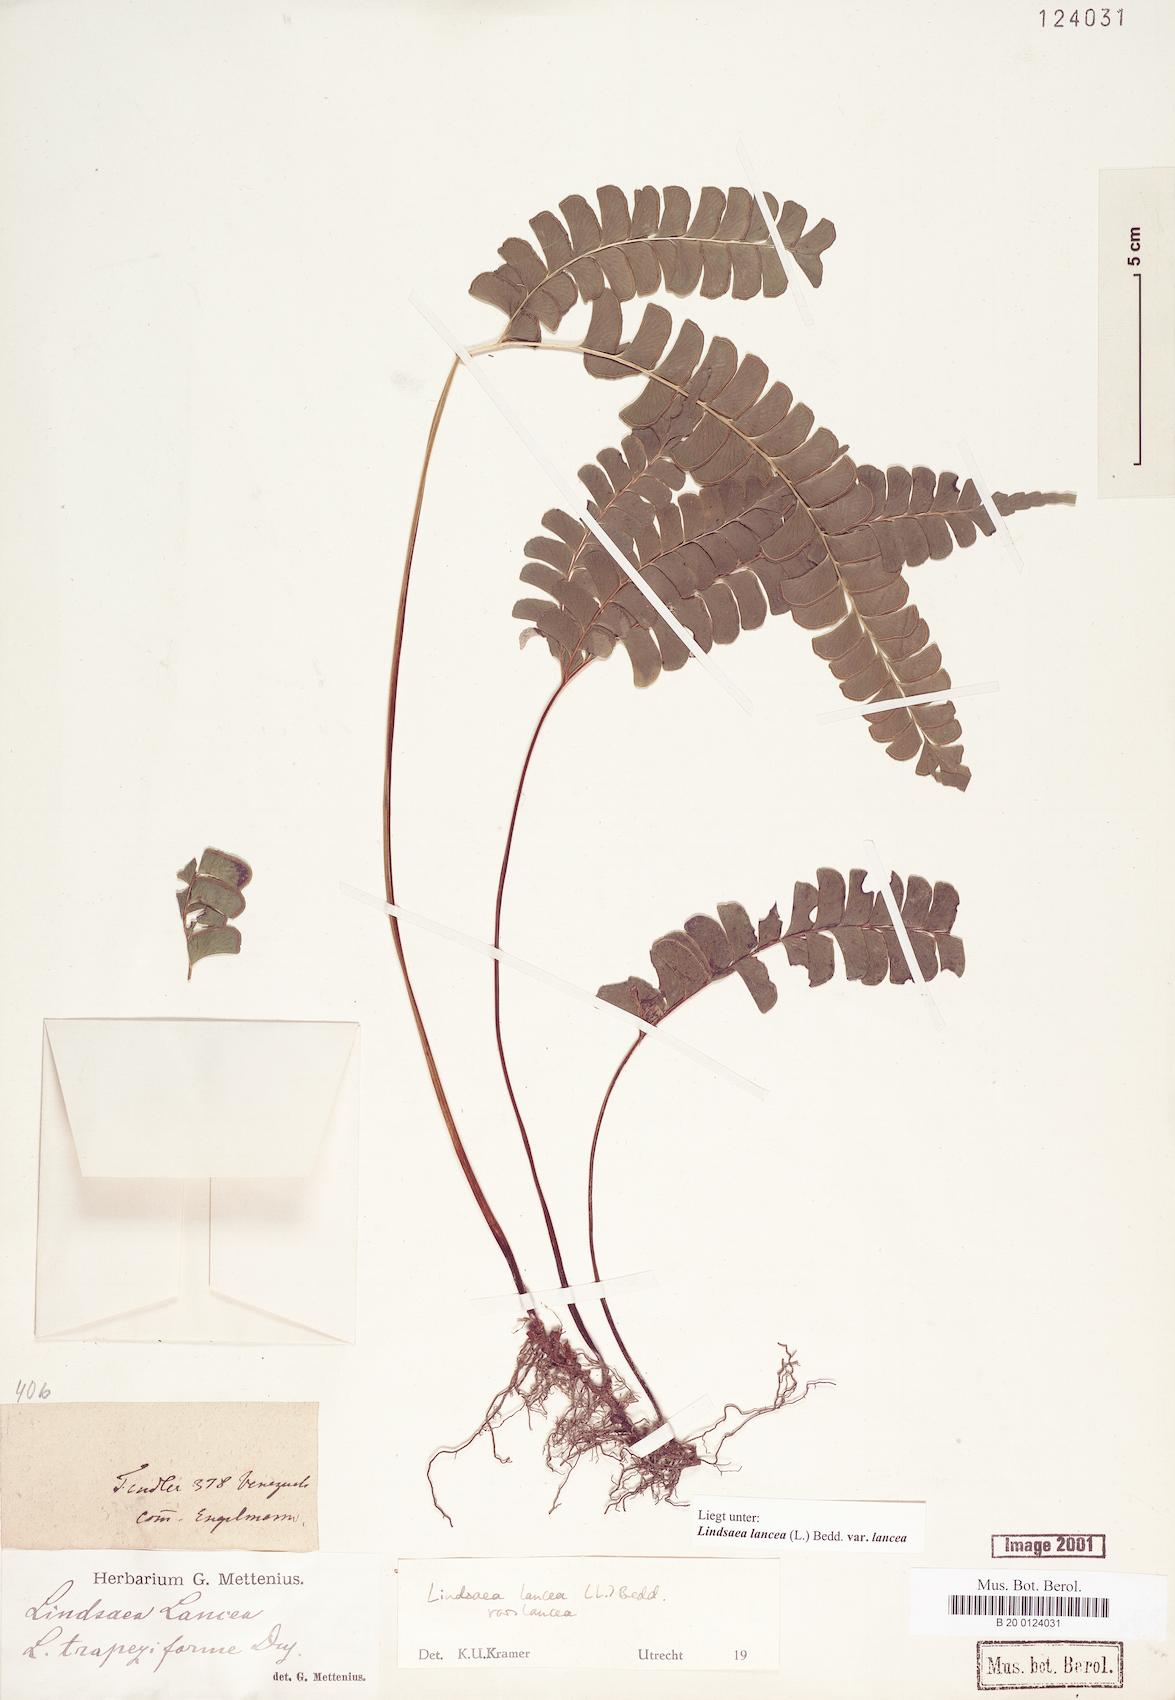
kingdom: Plantae
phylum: Tracheophyta
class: Polypodiopsida
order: Polypodiales
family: Lindsaeaceae
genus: Lindsaea
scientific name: Lindsaea lancea
